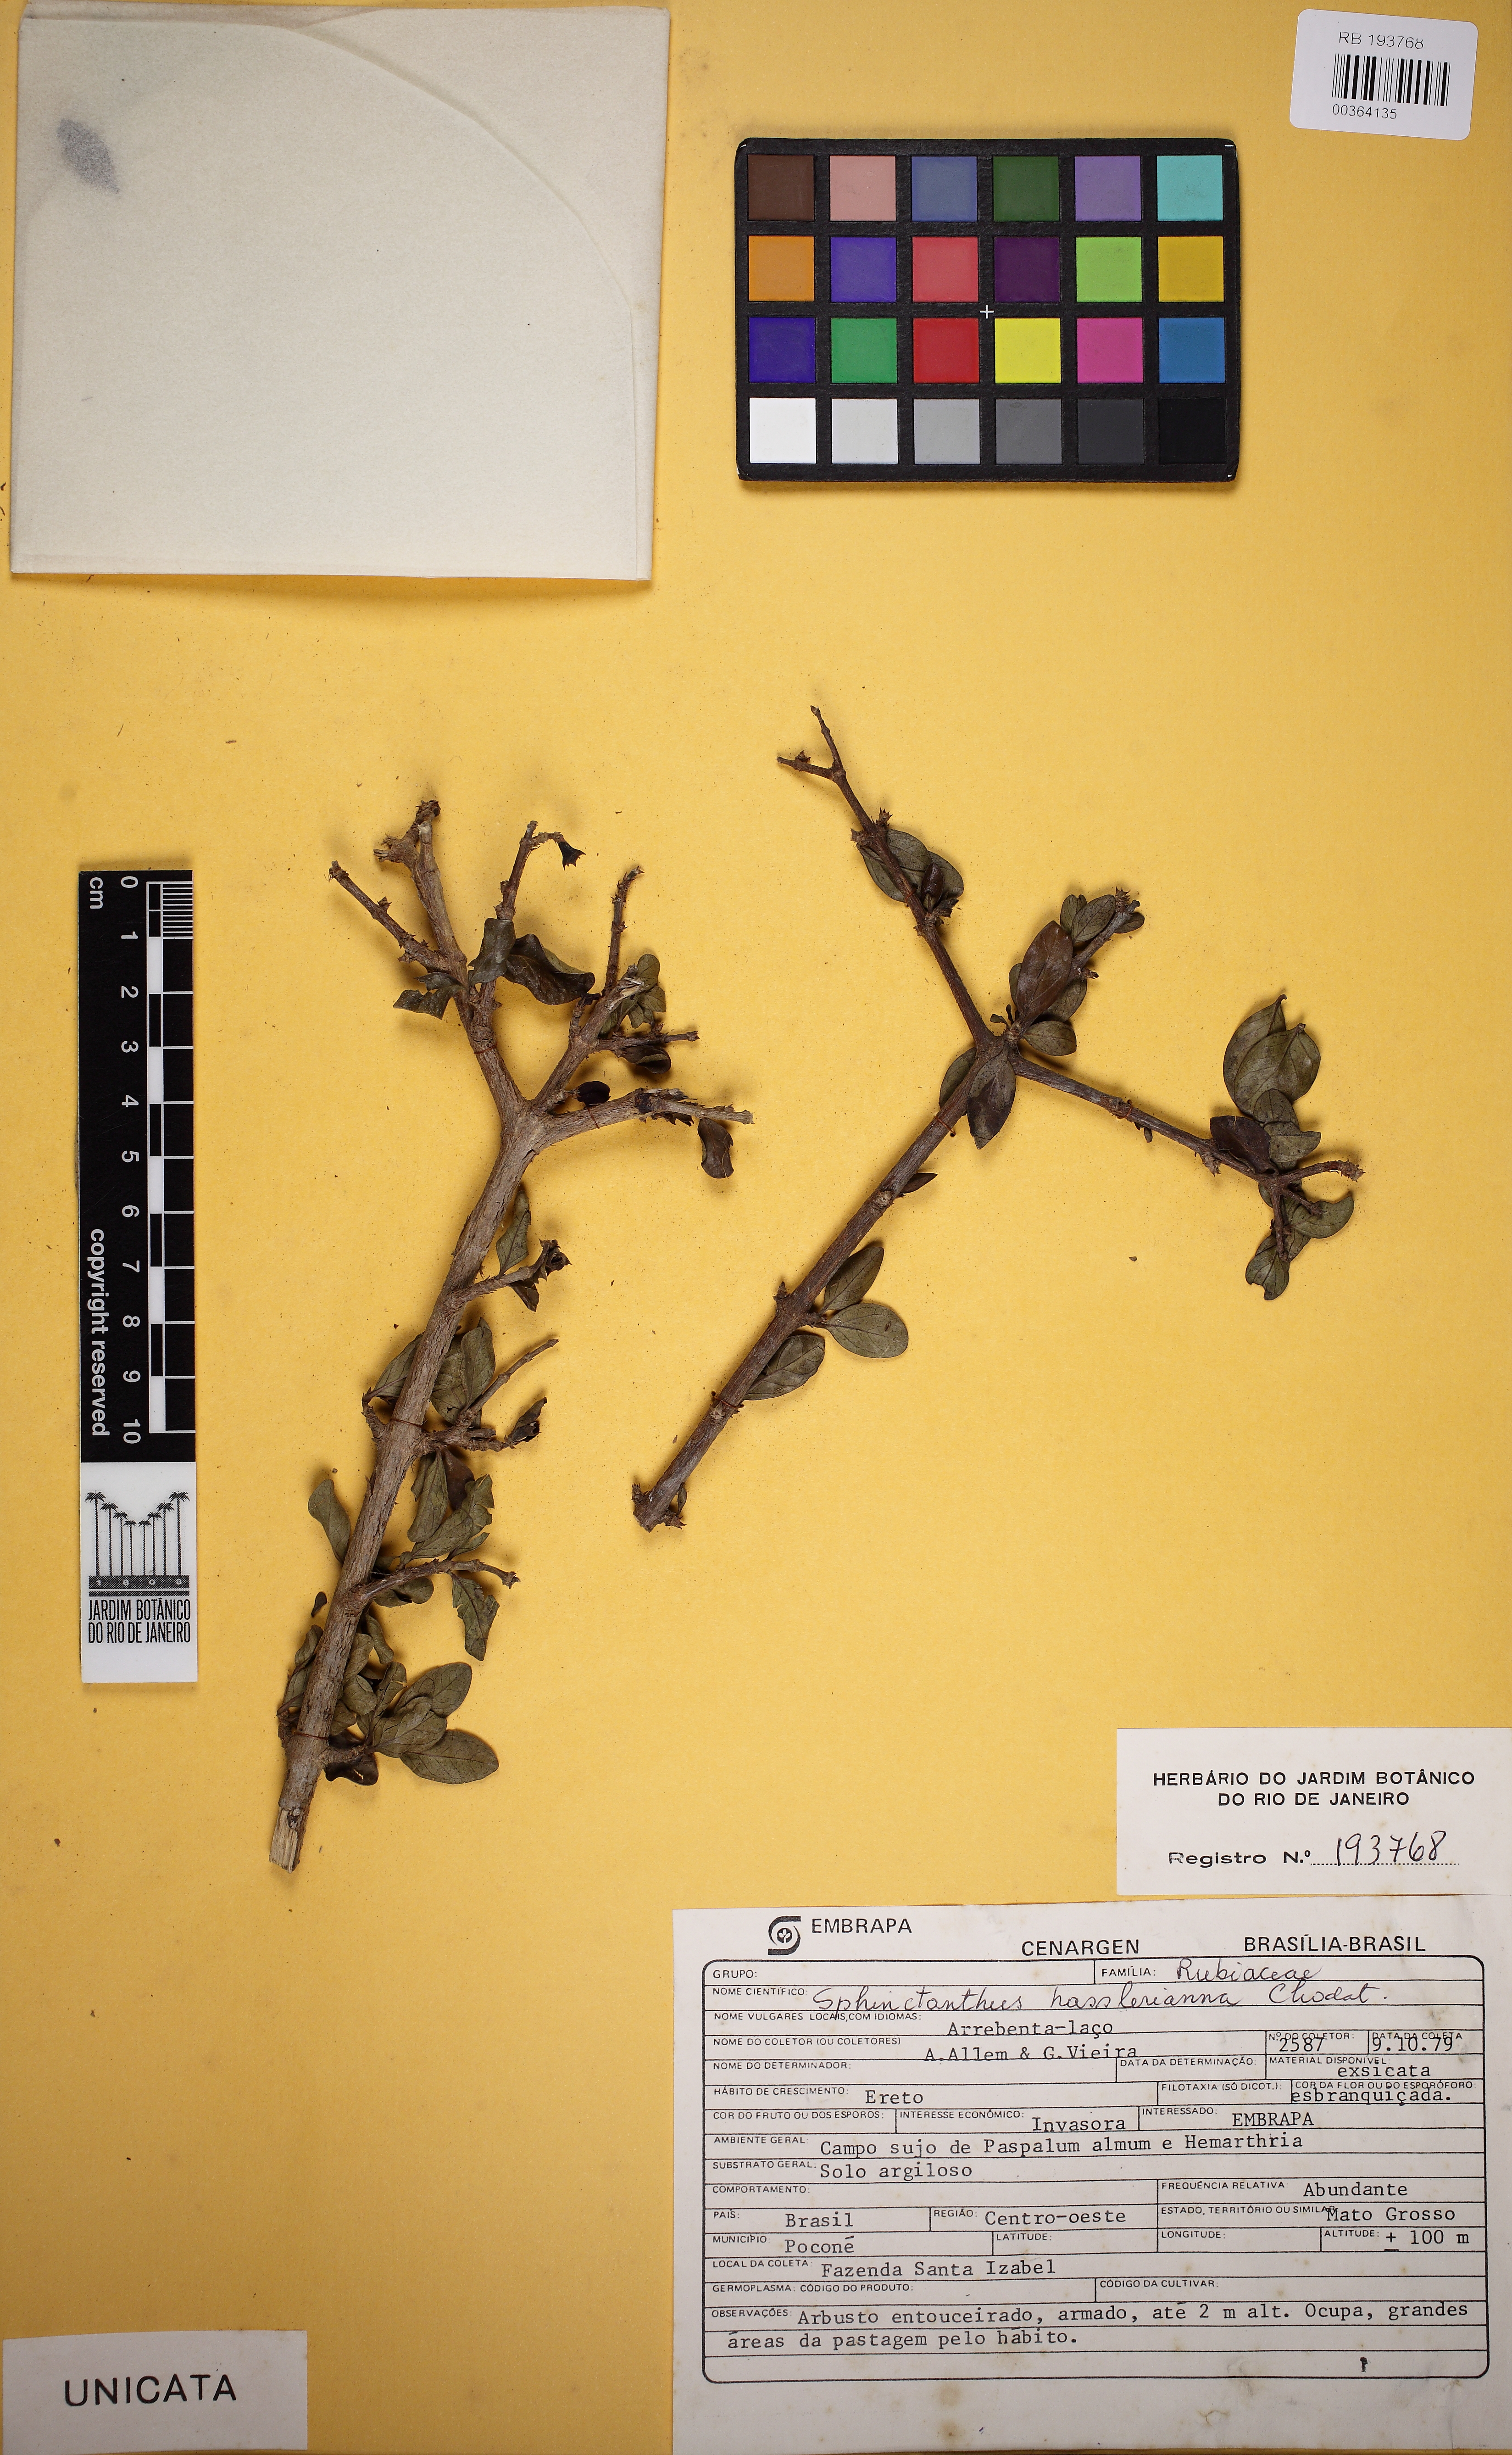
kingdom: Plantae
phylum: Tracheophyta
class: Magnoliopsida
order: Gentianales
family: Rubiaceae
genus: Sphinctanthus
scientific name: Sphinctanthus microphyllus
